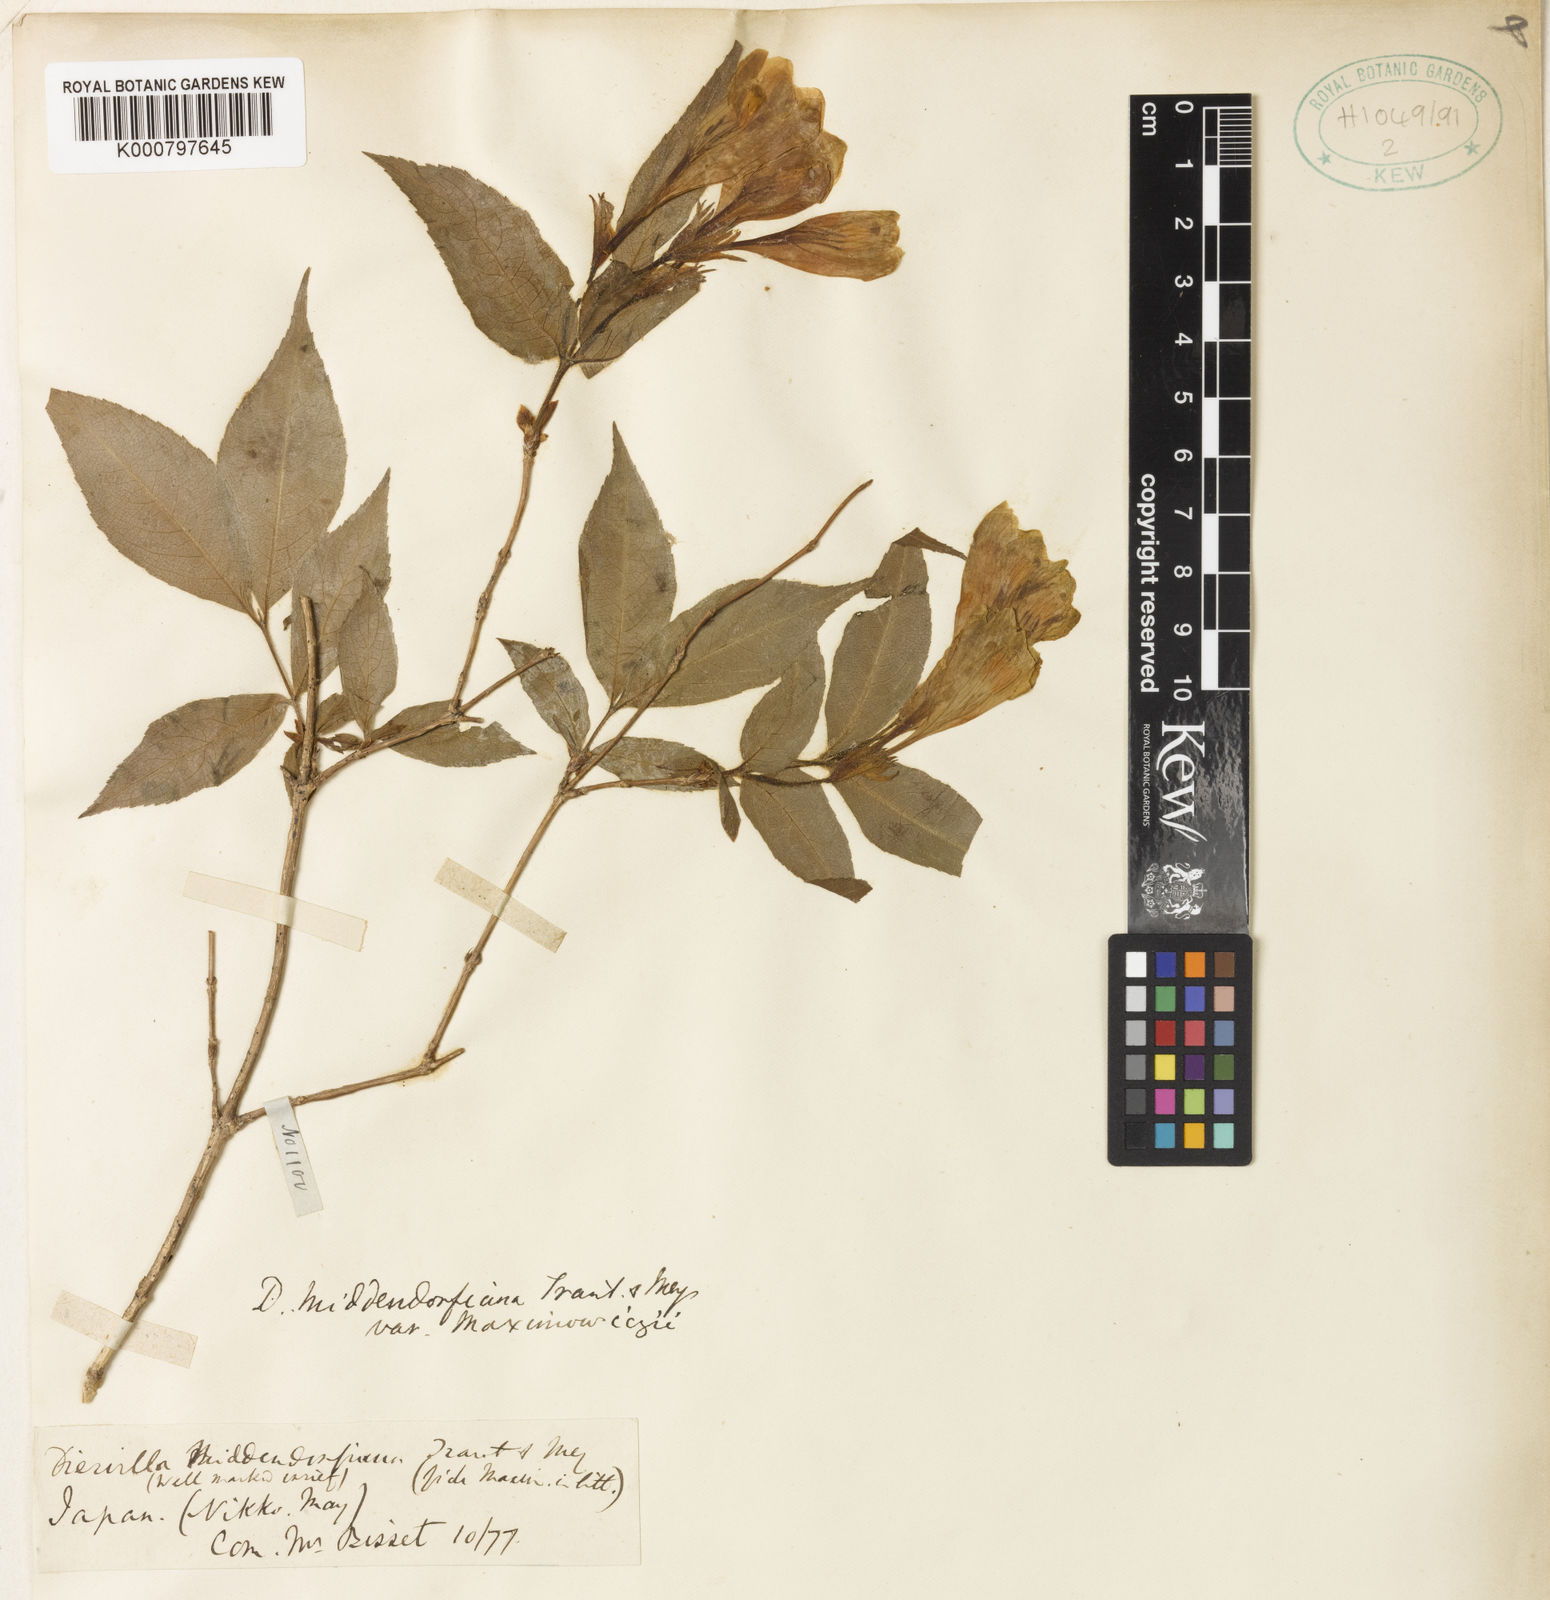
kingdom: Plantae
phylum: Tracheophyta
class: Magnoliopsida
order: Dipsacales
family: Caprifoliaceae
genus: Weigela
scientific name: Weigela maximowiczii
